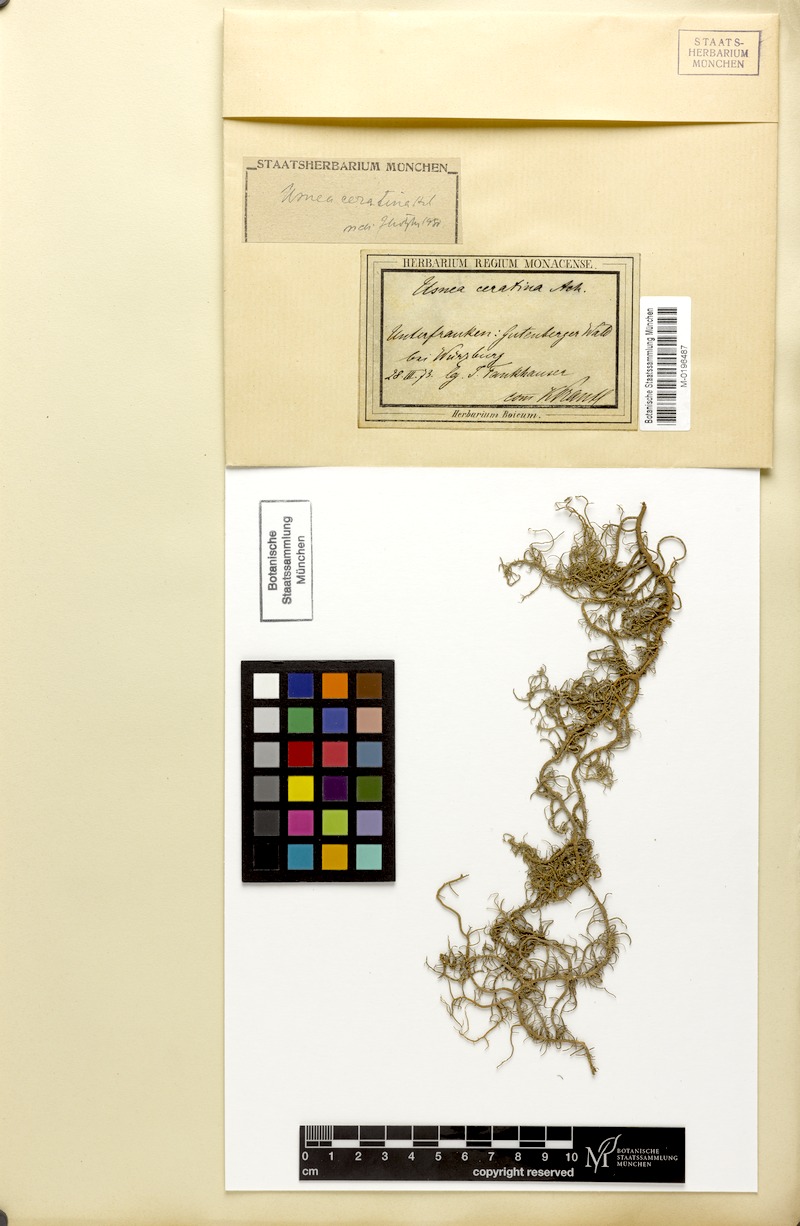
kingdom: Fungi
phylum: Ascomycota
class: Lecanoromycetes
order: Lecanorales
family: Parmeliaceae
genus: Usnea
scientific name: Usnea ceratina
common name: Warty beard lichen
